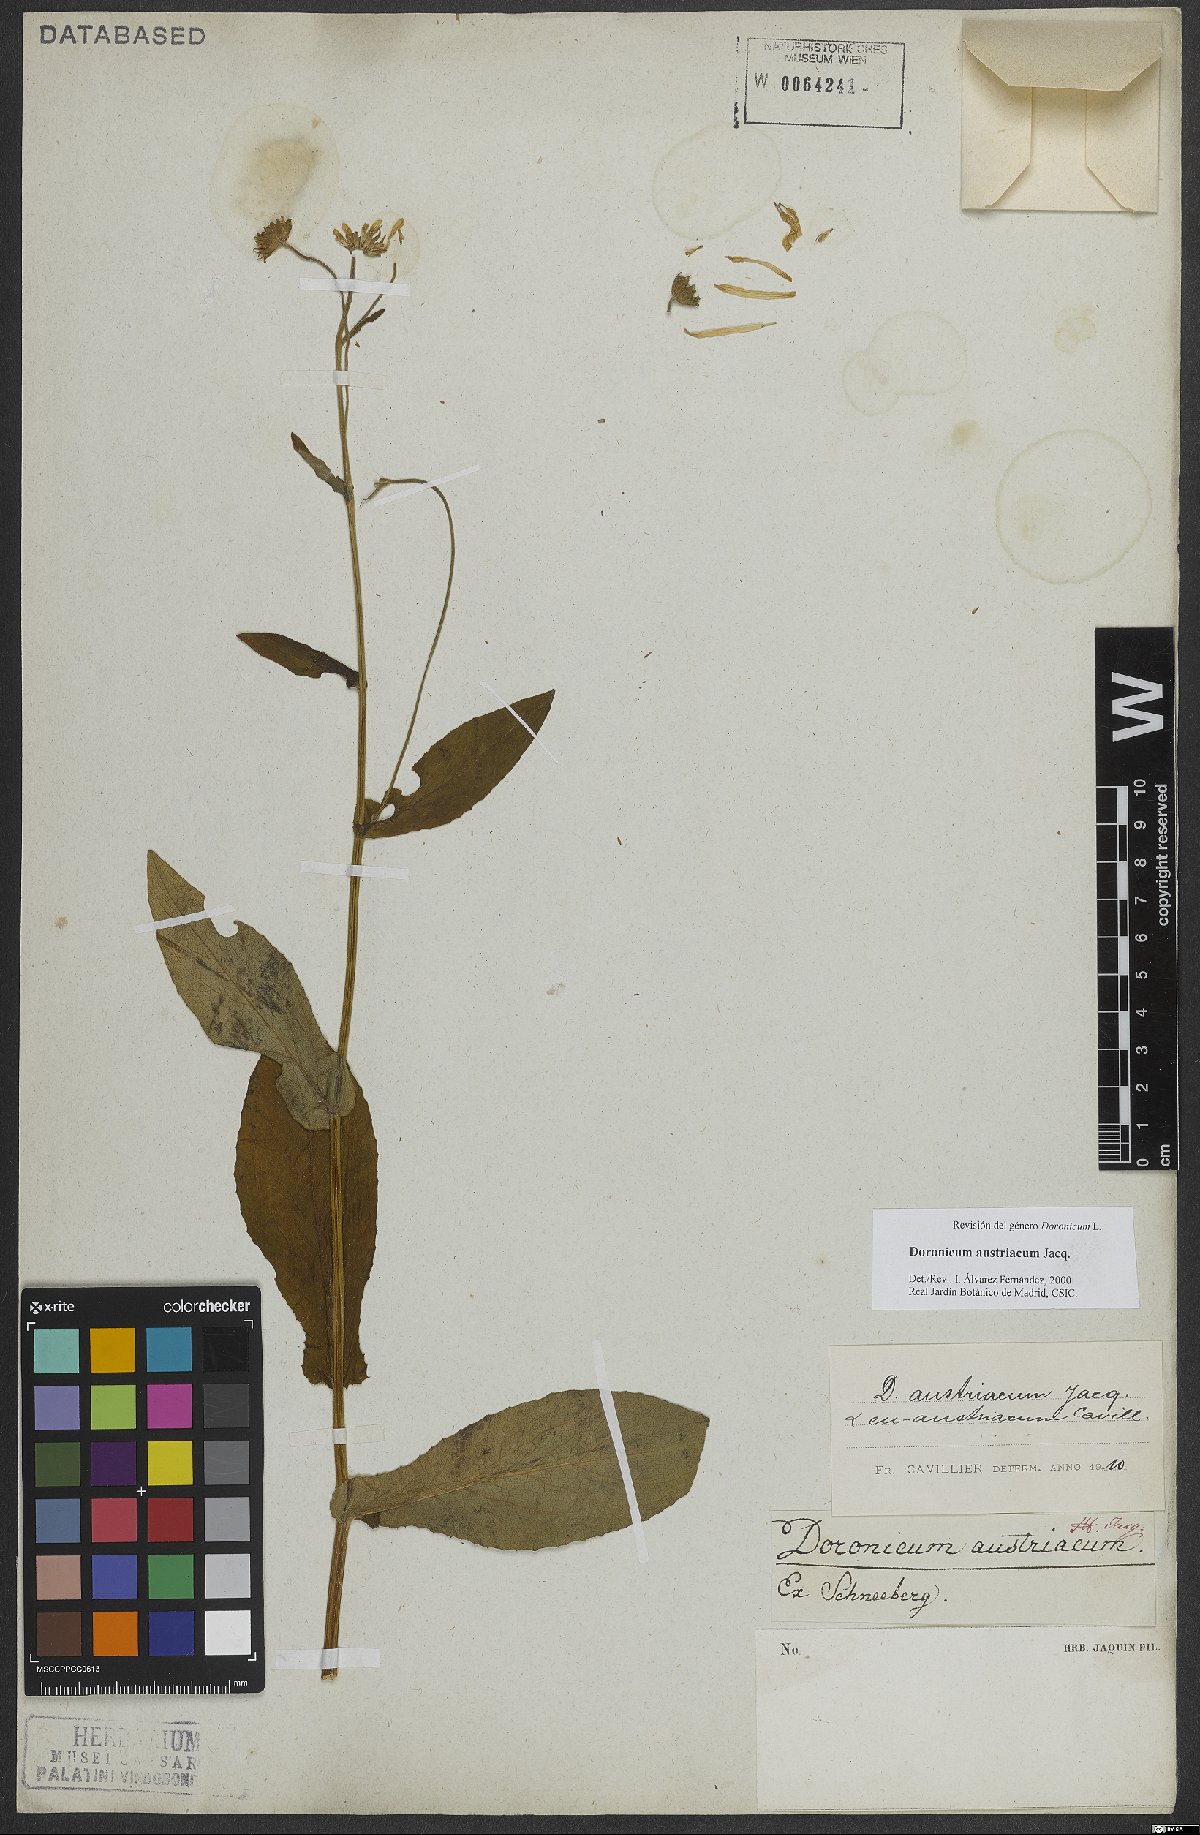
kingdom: Plantae
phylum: Tracheophyta
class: Magnoliopsida
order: Asterales
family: Asteraceae
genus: Doronicum
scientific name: Doronicum austriacum
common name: Austrian leopard's-bane
